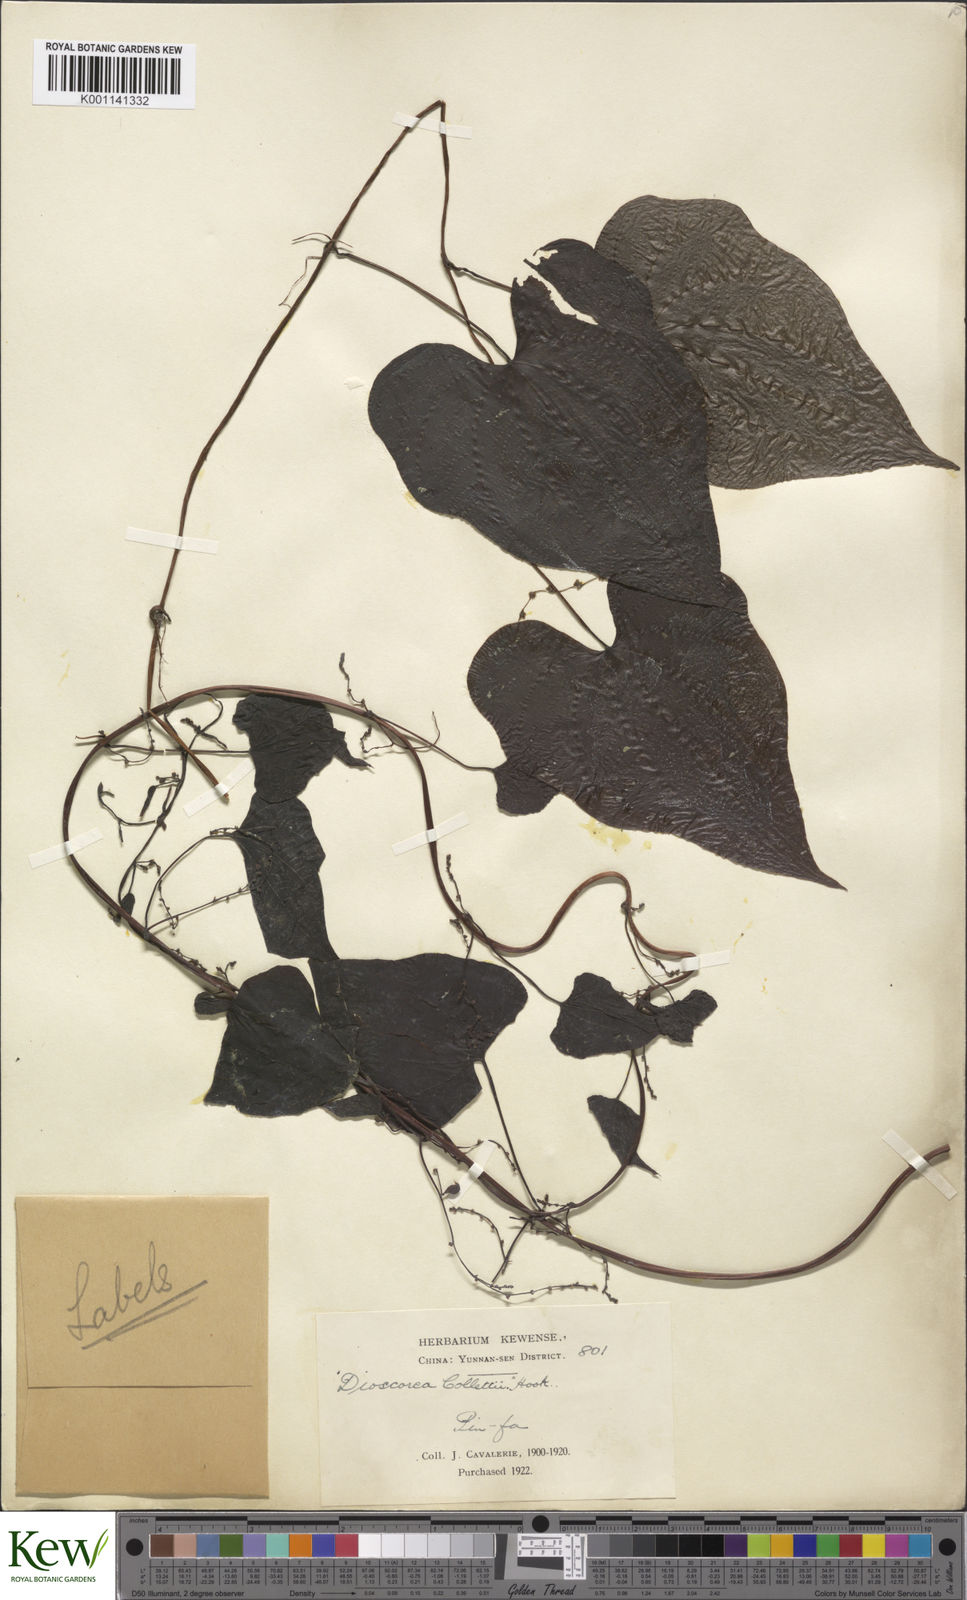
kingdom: Plantae
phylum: Tracheophyta
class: Liliopsida
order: Dioscoreales
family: Dioscoreaceae
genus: Dioscorea
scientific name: Dioscorea collettii
